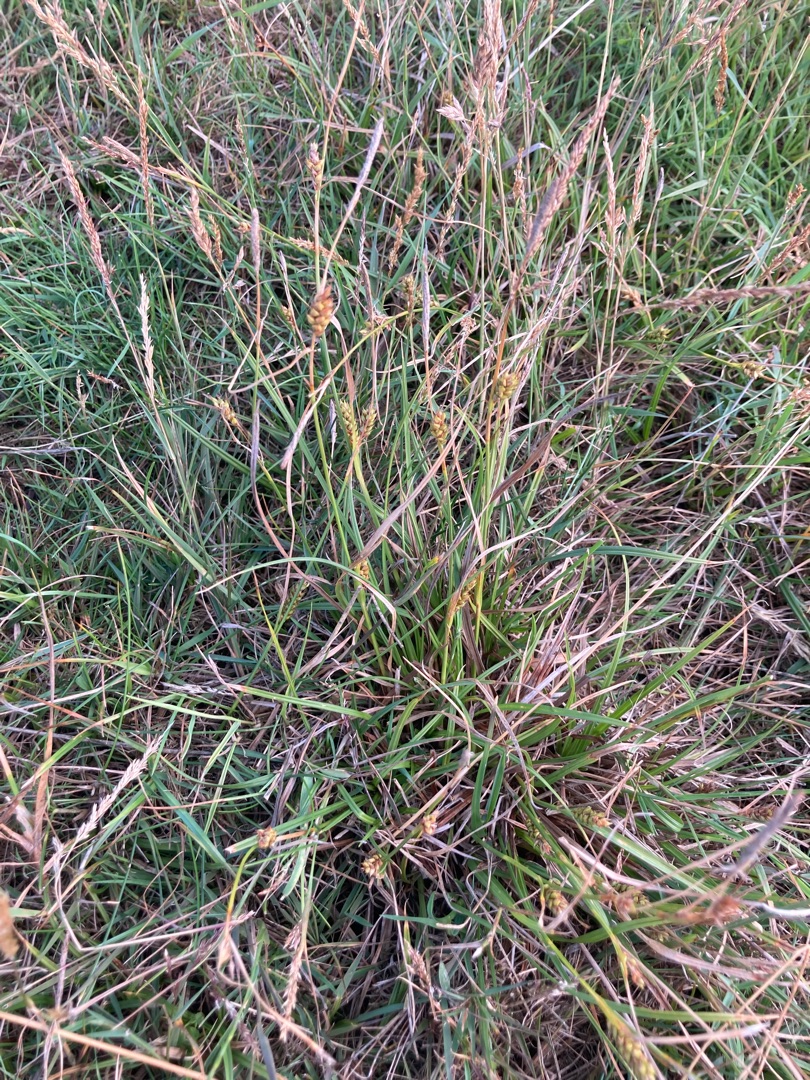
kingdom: Plantae
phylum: Tracheophyta
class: Liliopsida
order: Poales
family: Cyperaceae
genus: Carex
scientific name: Carex distans
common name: Fjernakset star
